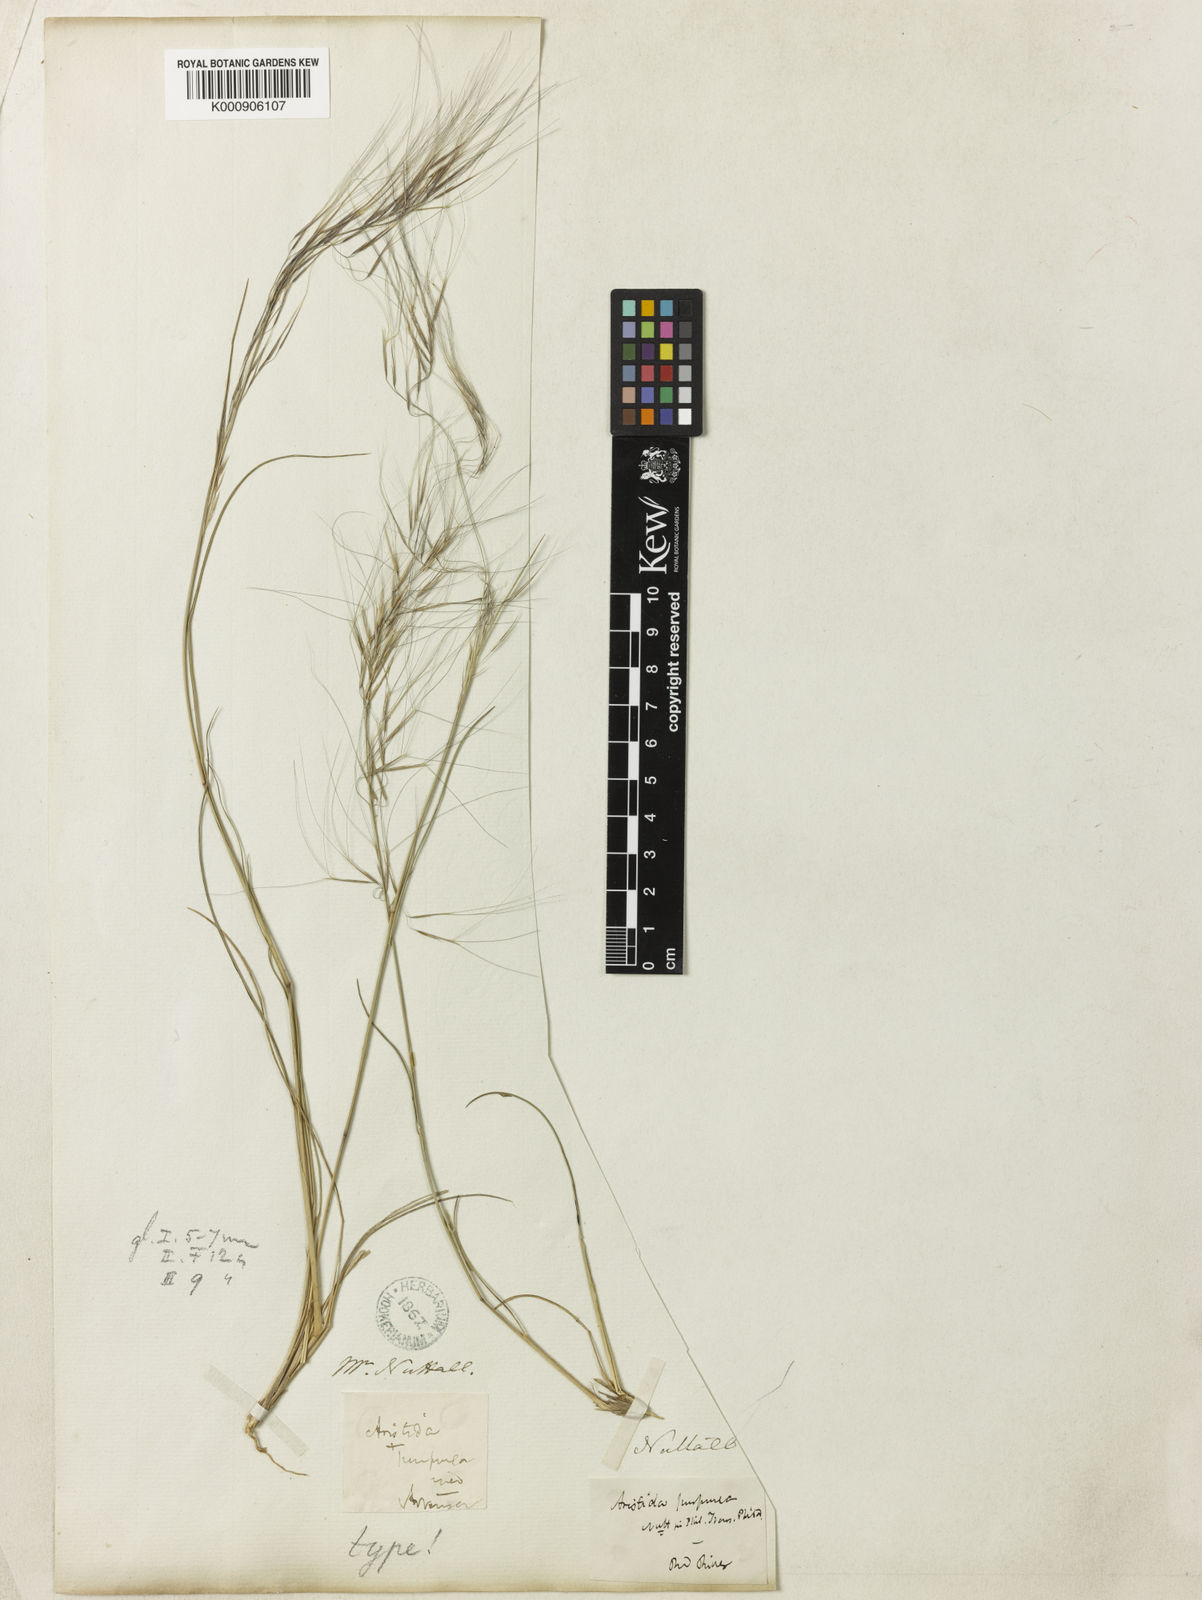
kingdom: Plantae
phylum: Tracheophyta
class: Liliopsida
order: Poales
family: Poaceae
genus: Aristida
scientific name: Aristida purpurea
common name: Purple threeawn
